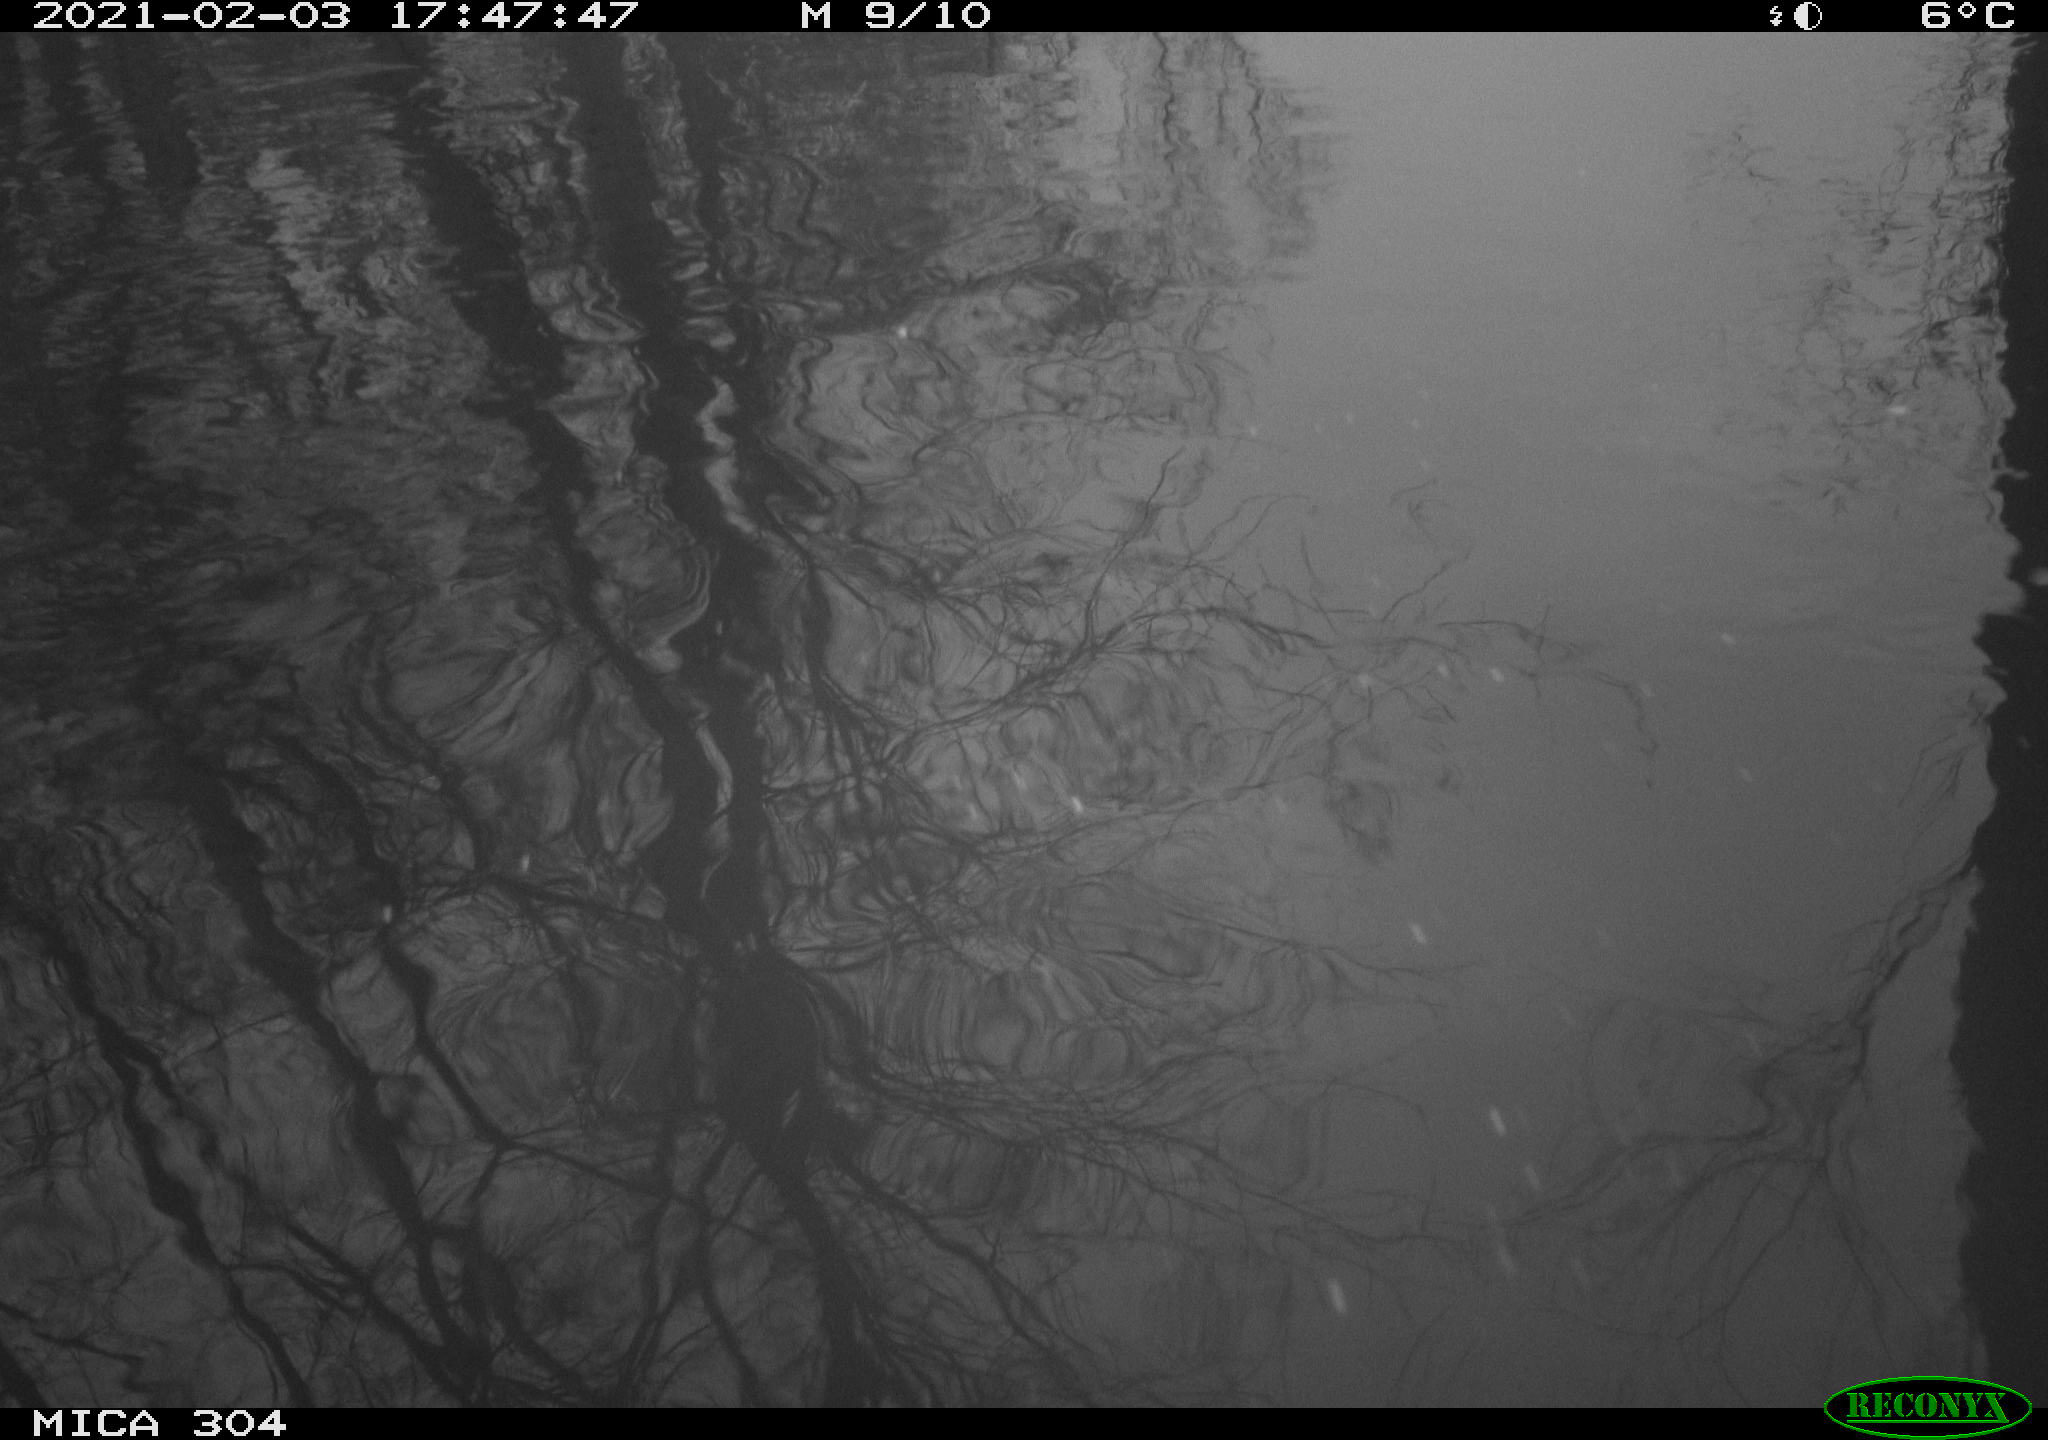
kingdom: Animalia
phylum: Chordata
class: Mammalia
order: Rodentia
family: Cricetidae
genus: Ondatra
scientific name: Ondatra zibethicus
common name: Muskrat
